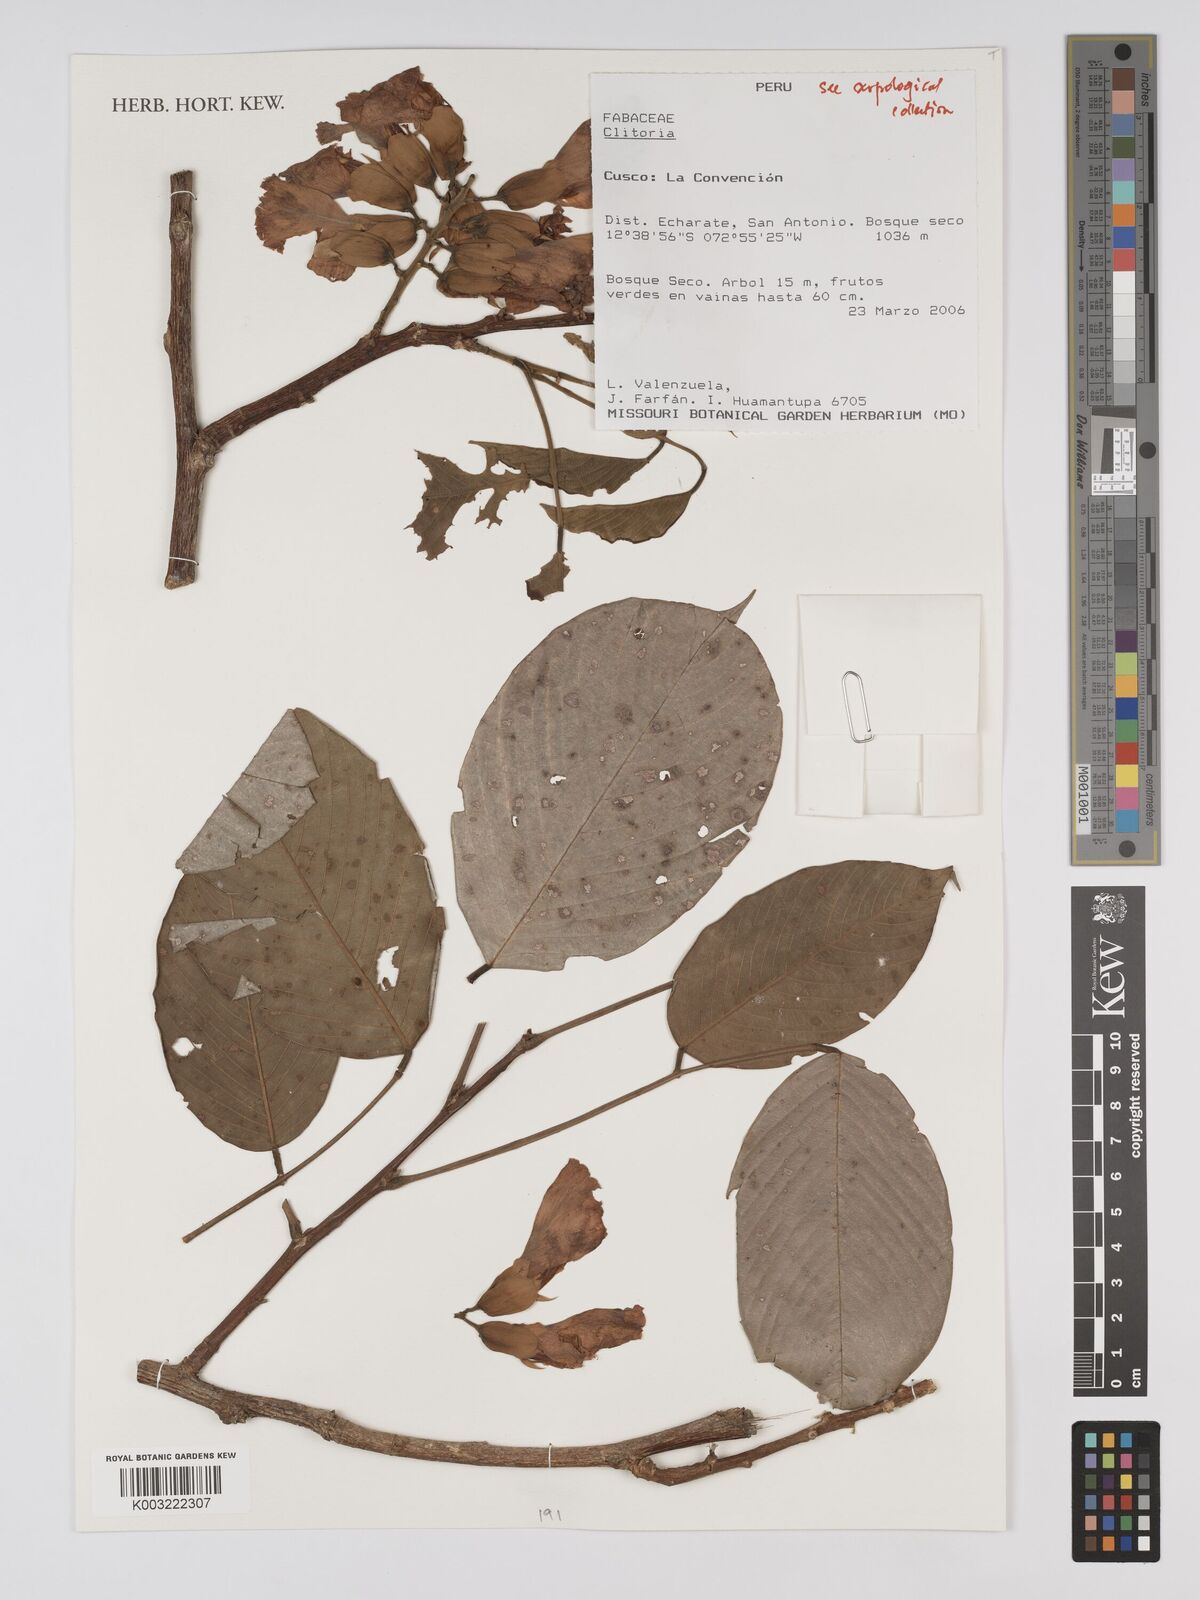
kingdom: Plantae
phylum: Tracheophyta
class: Magnoliopsida
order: Fabales
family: Fabaceae
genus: Clitoria
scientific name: Clitoria
